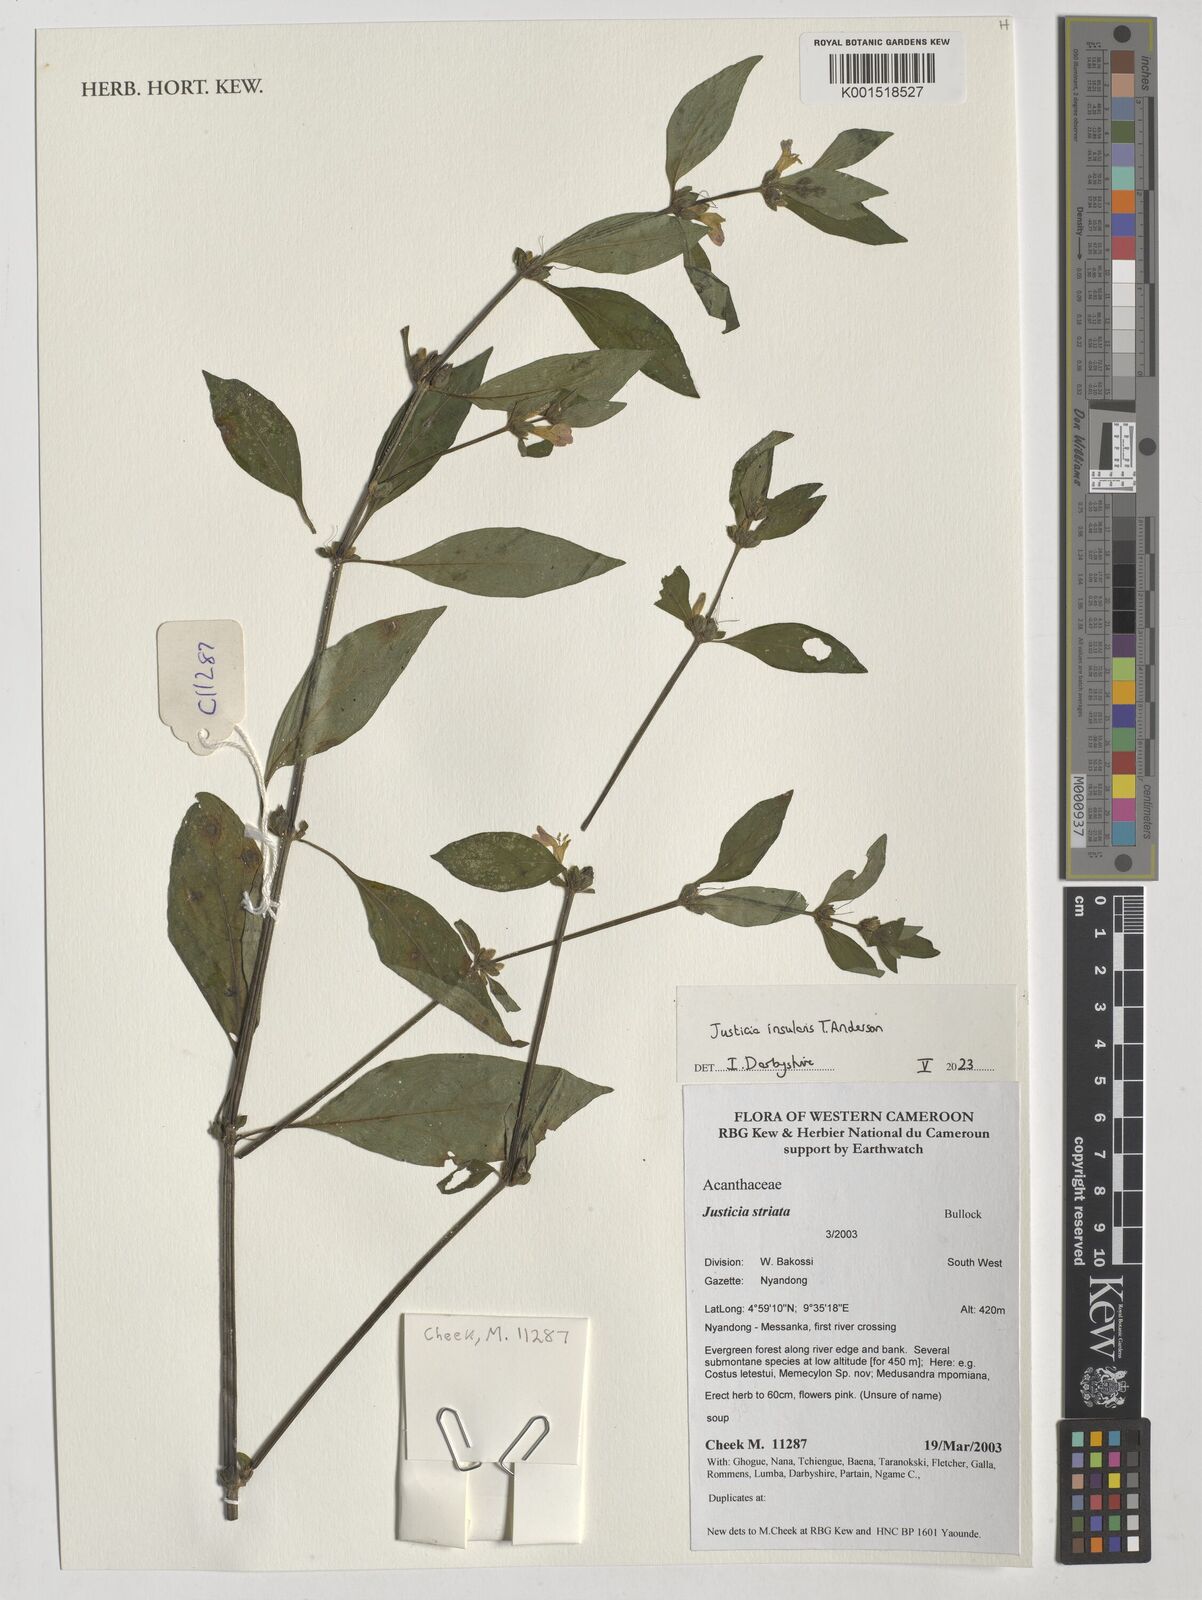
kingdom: Plantae
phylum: Tracheophyta
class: Magnoliopsida
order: Lamiales
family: Acanthaceae
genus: Justicia
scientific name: Justicia insularis
